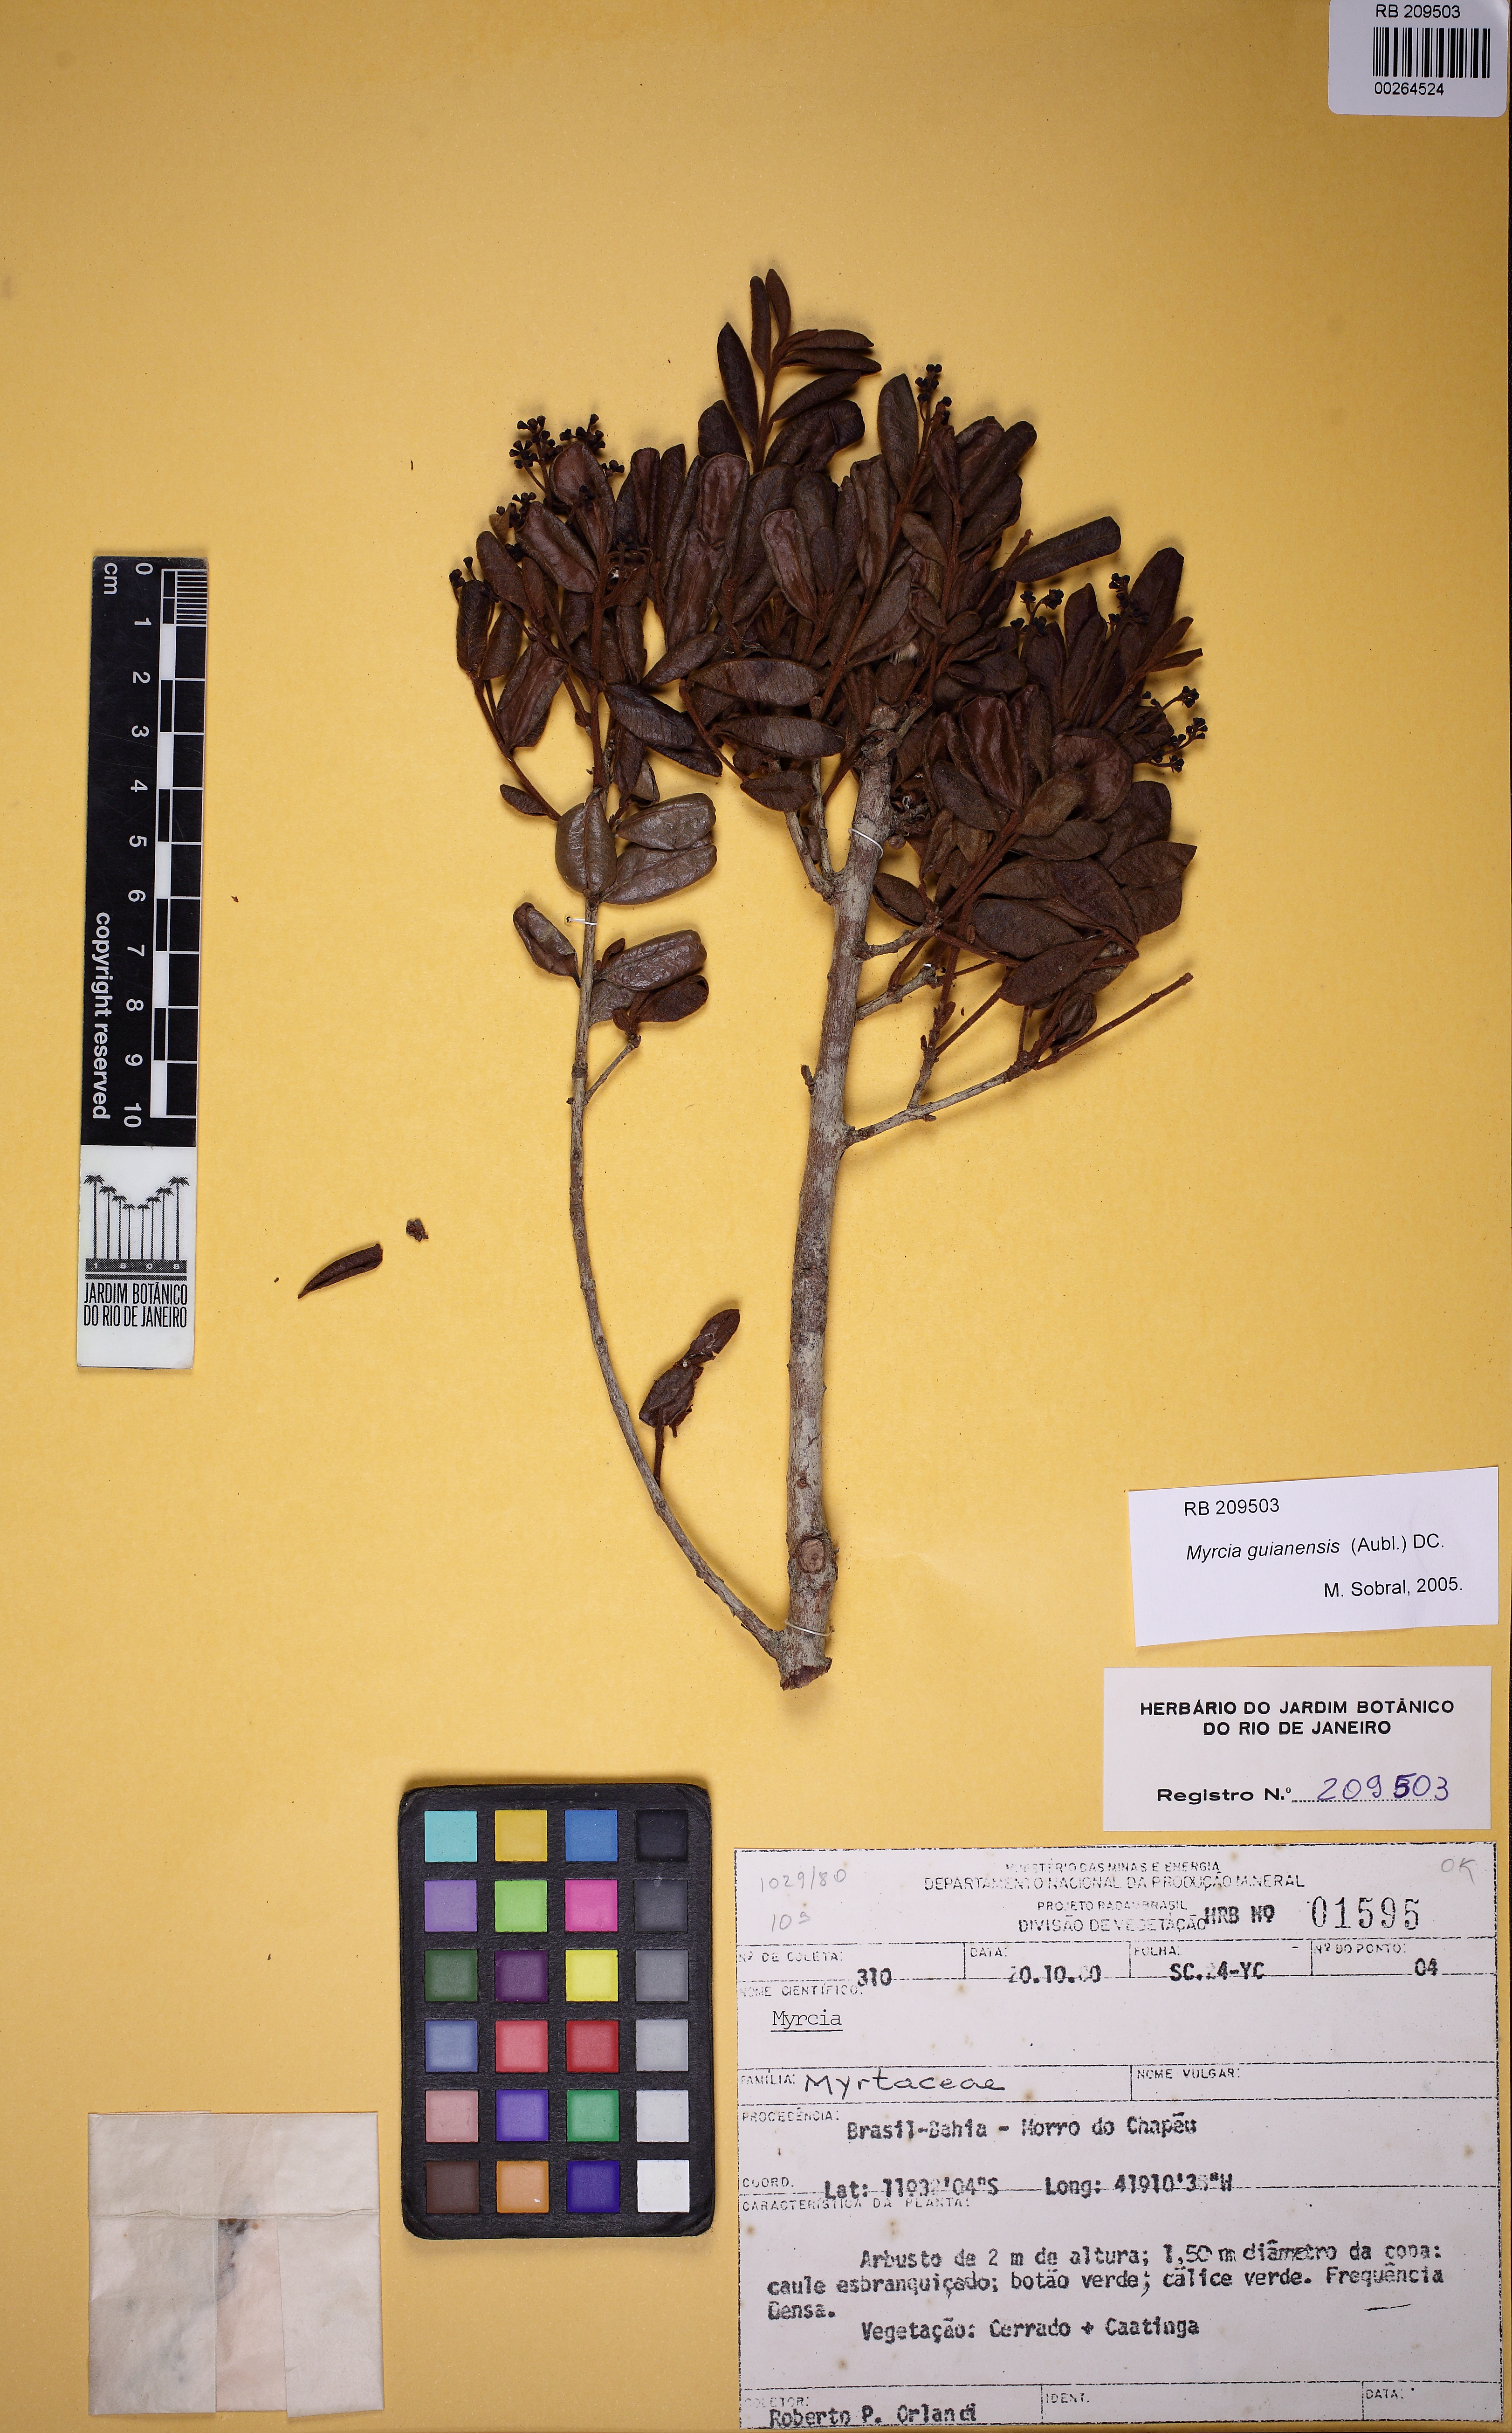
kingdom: Plantae
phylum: Tracheophyta
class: Magnoliopsida
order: Myrtales
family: Myrtaceae
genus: Myrcia
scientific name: Myrcia rufipes
